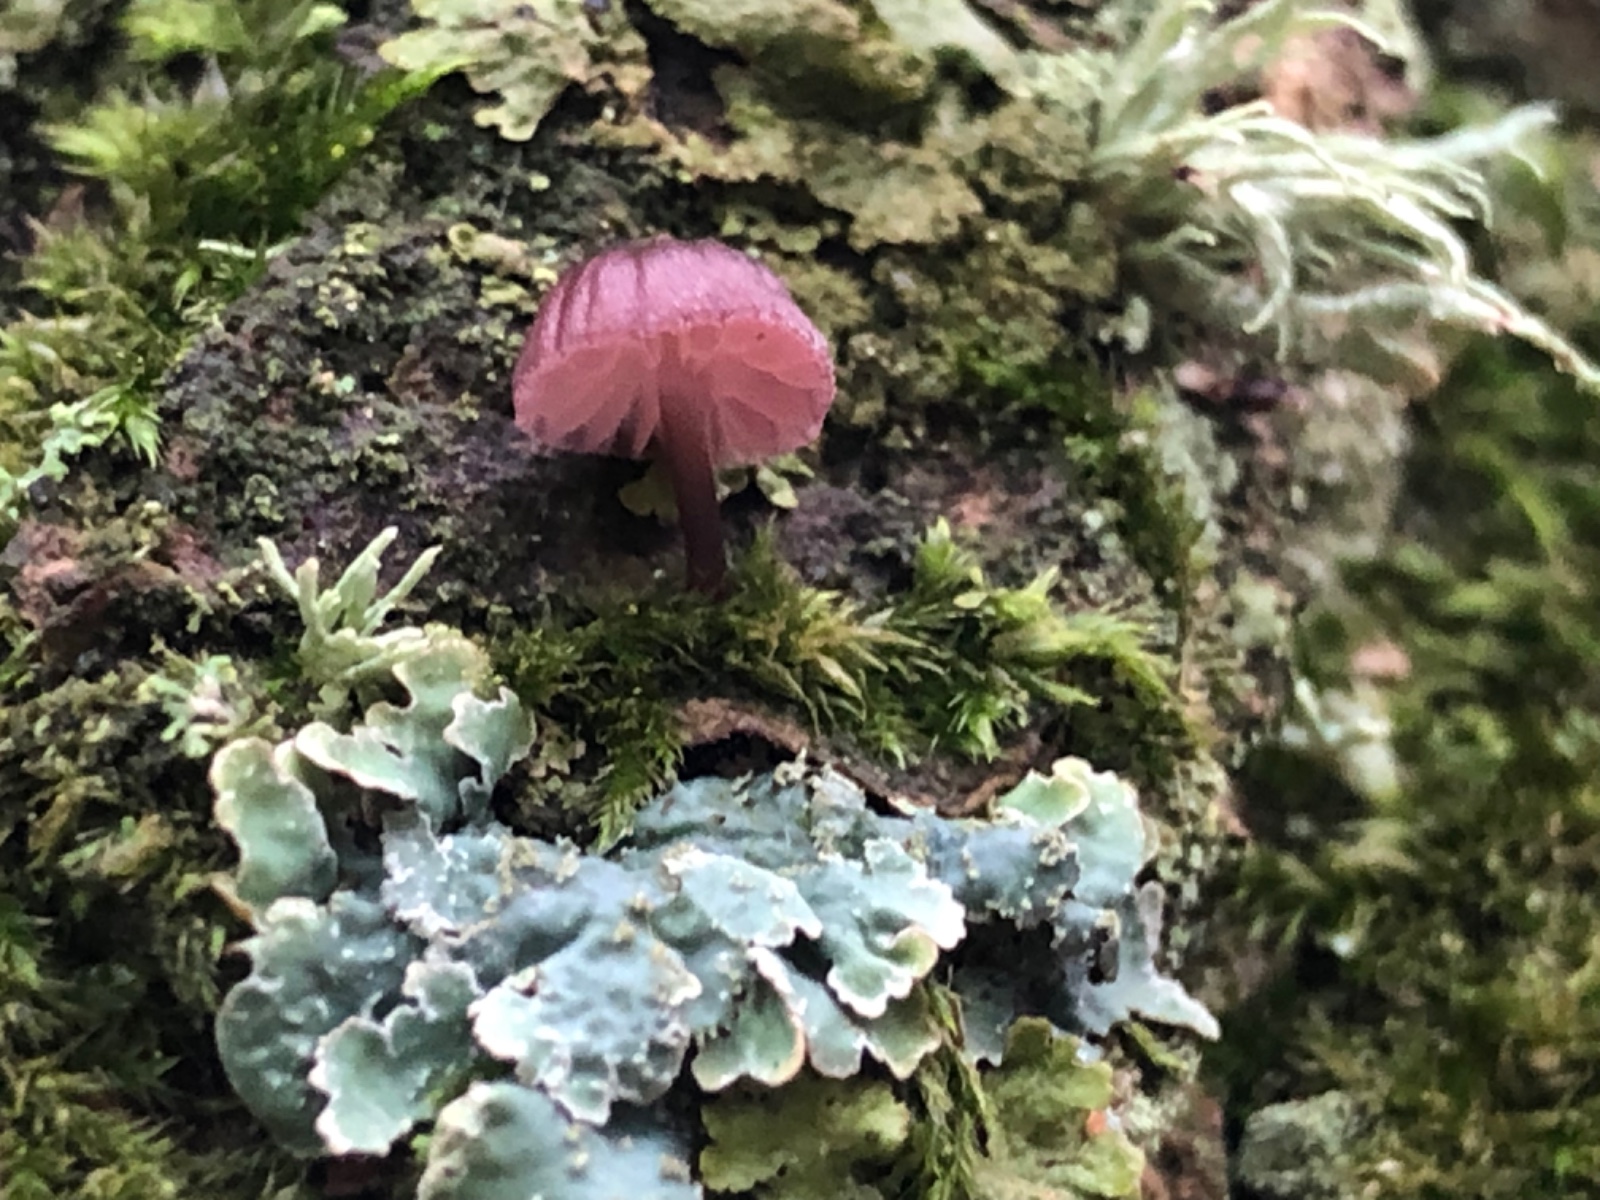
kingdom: Fungi
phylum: Basidiomycota
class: Agaricomycetes
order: Agaricales
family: Mycenaceae
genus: Mycena
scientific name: Mycena meliigena
